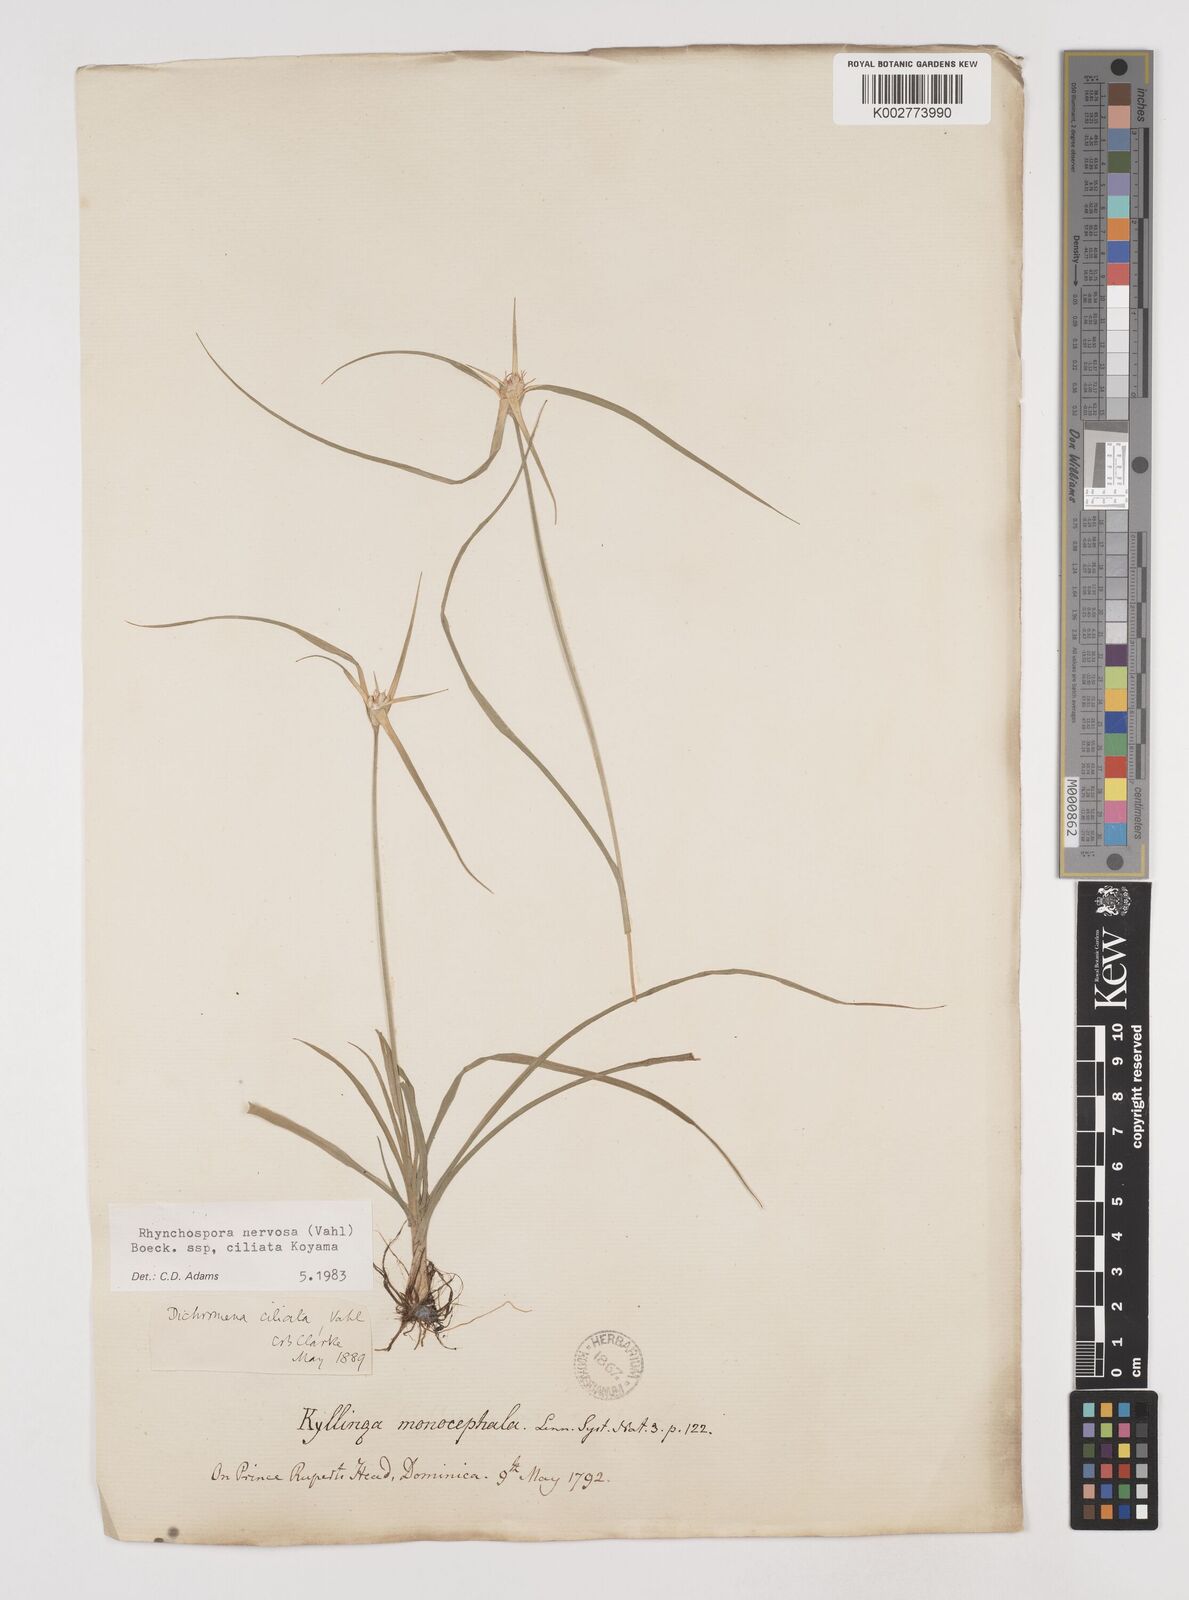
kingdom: Plantae
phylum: Tracheophyta
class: Liliopsida
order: Poales
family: Cyperaceae
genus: Rhynchospora
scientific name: Rhynchospora pura
